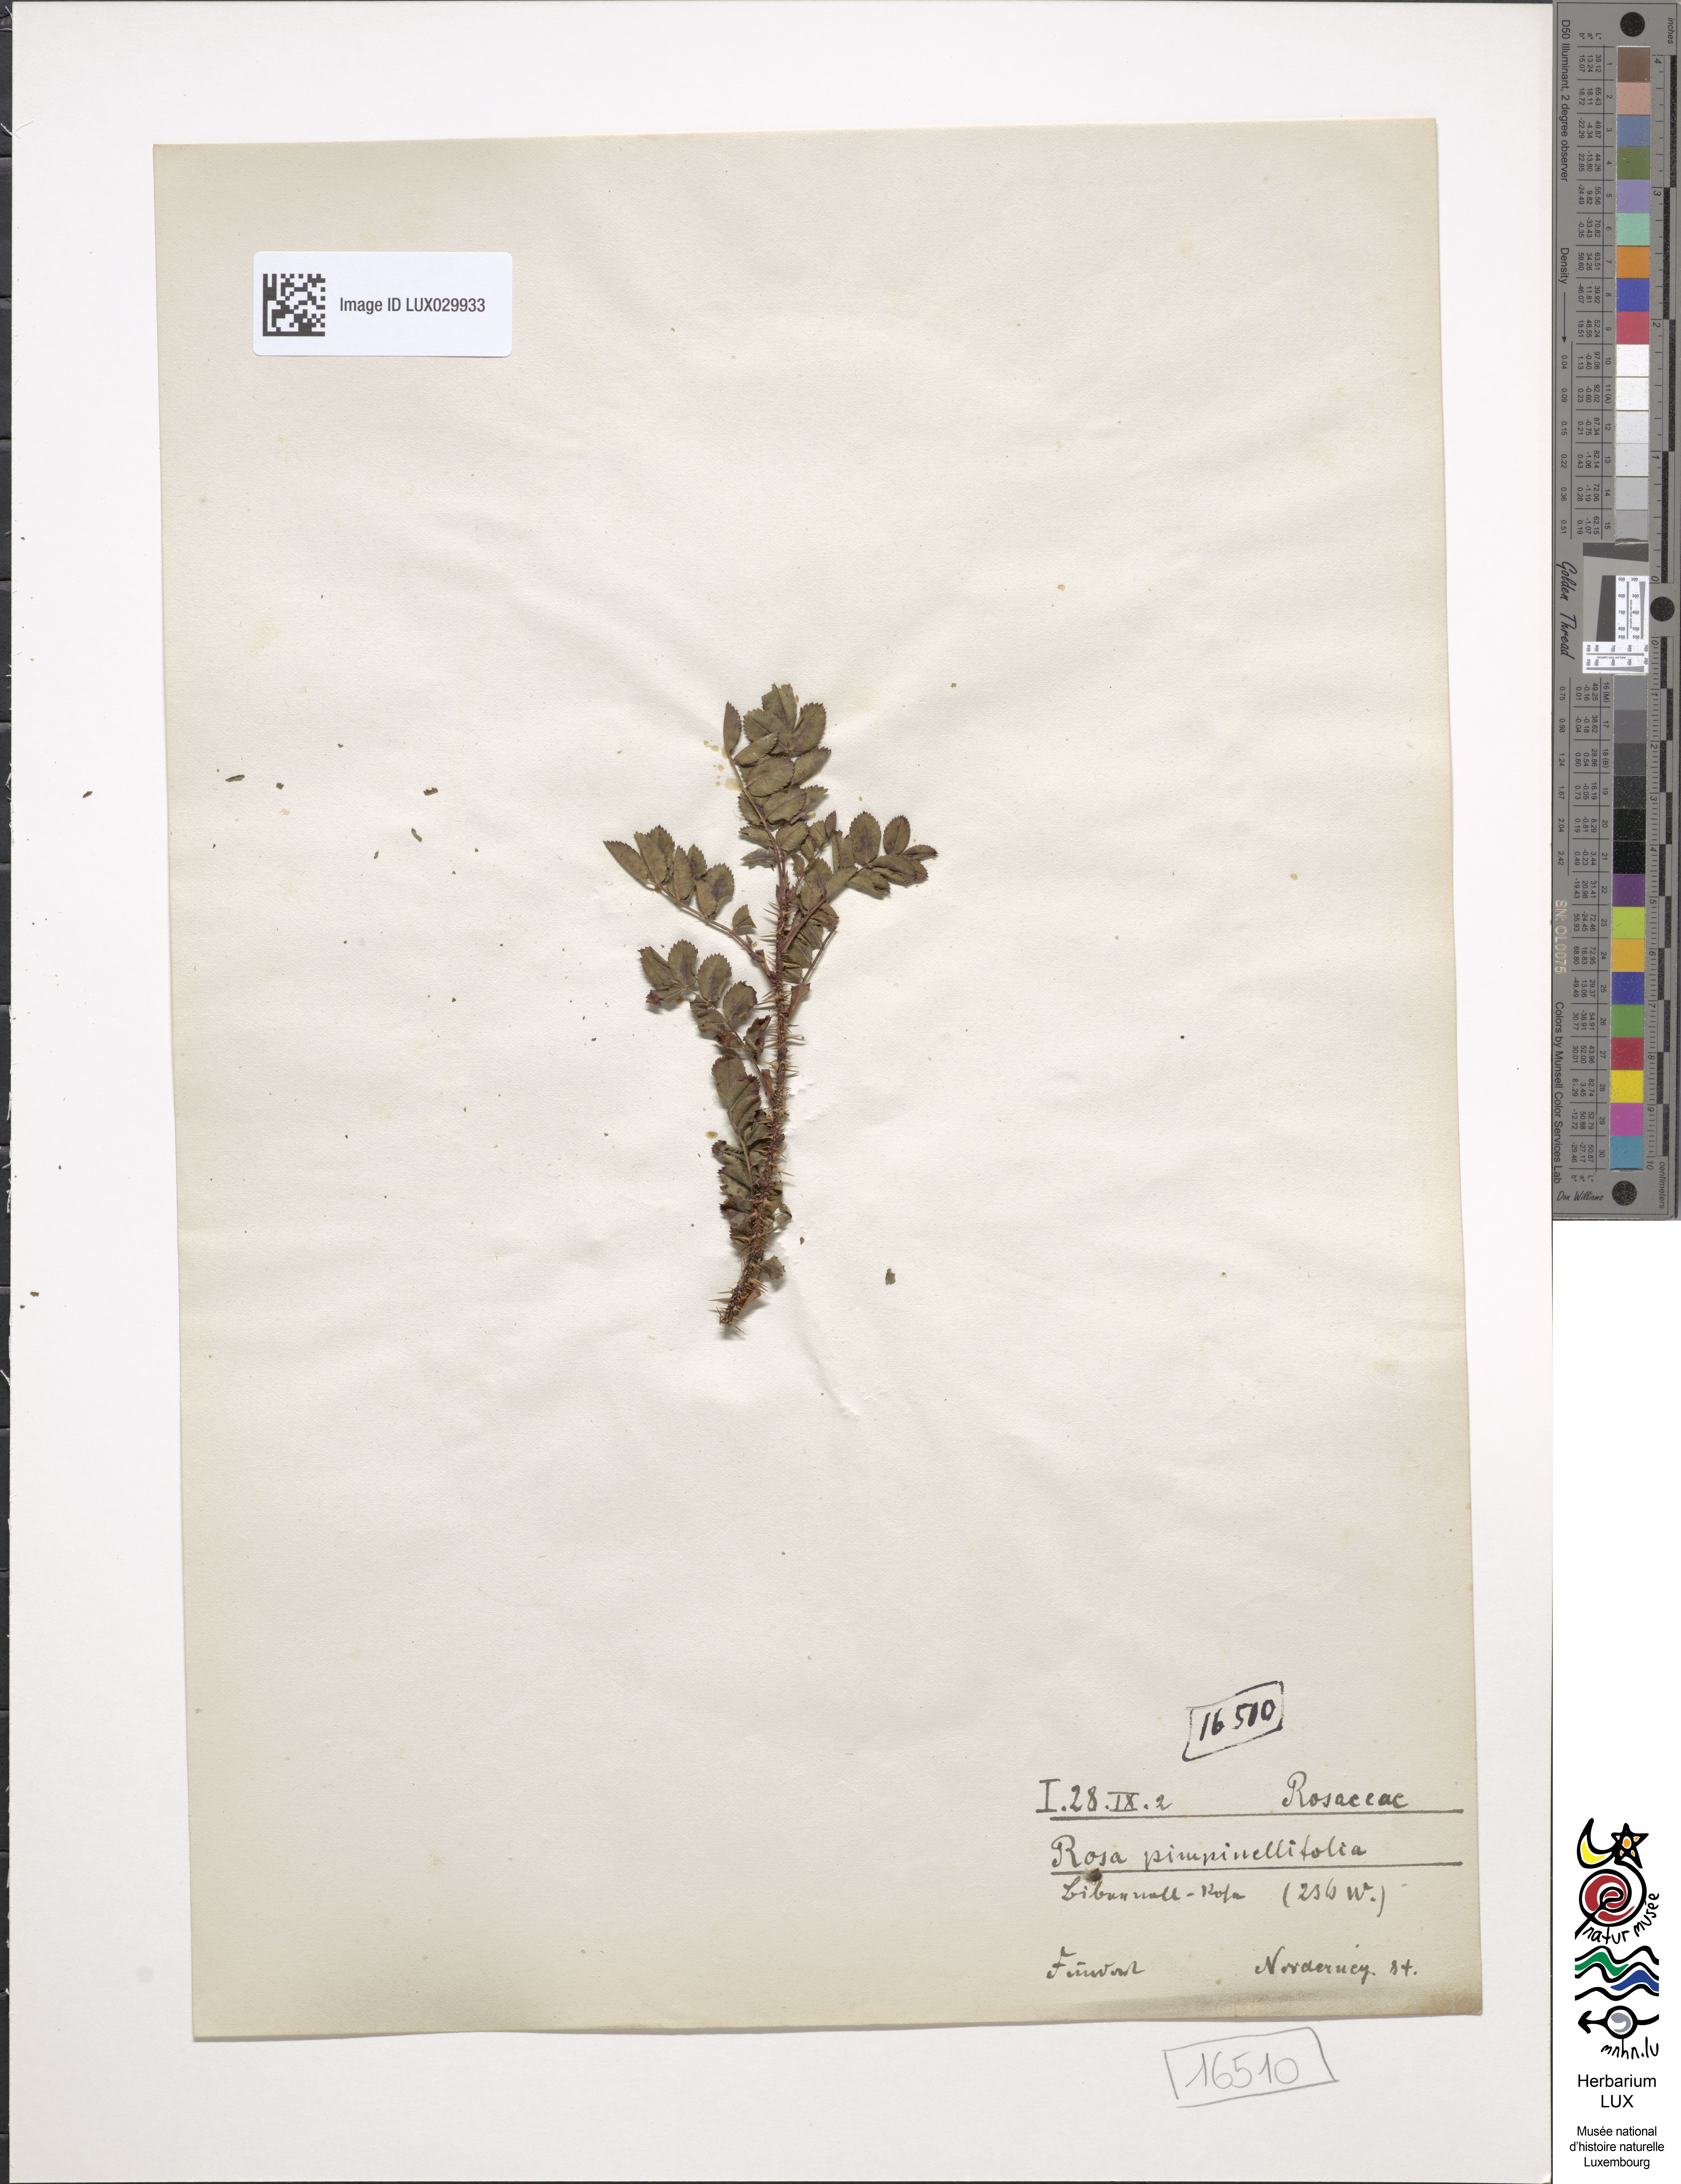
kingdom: Plantae
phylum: Tracheophyta
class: Magnoliopsida
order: Rosales
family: Rosaceae
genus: Rosa
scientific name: Rosa
